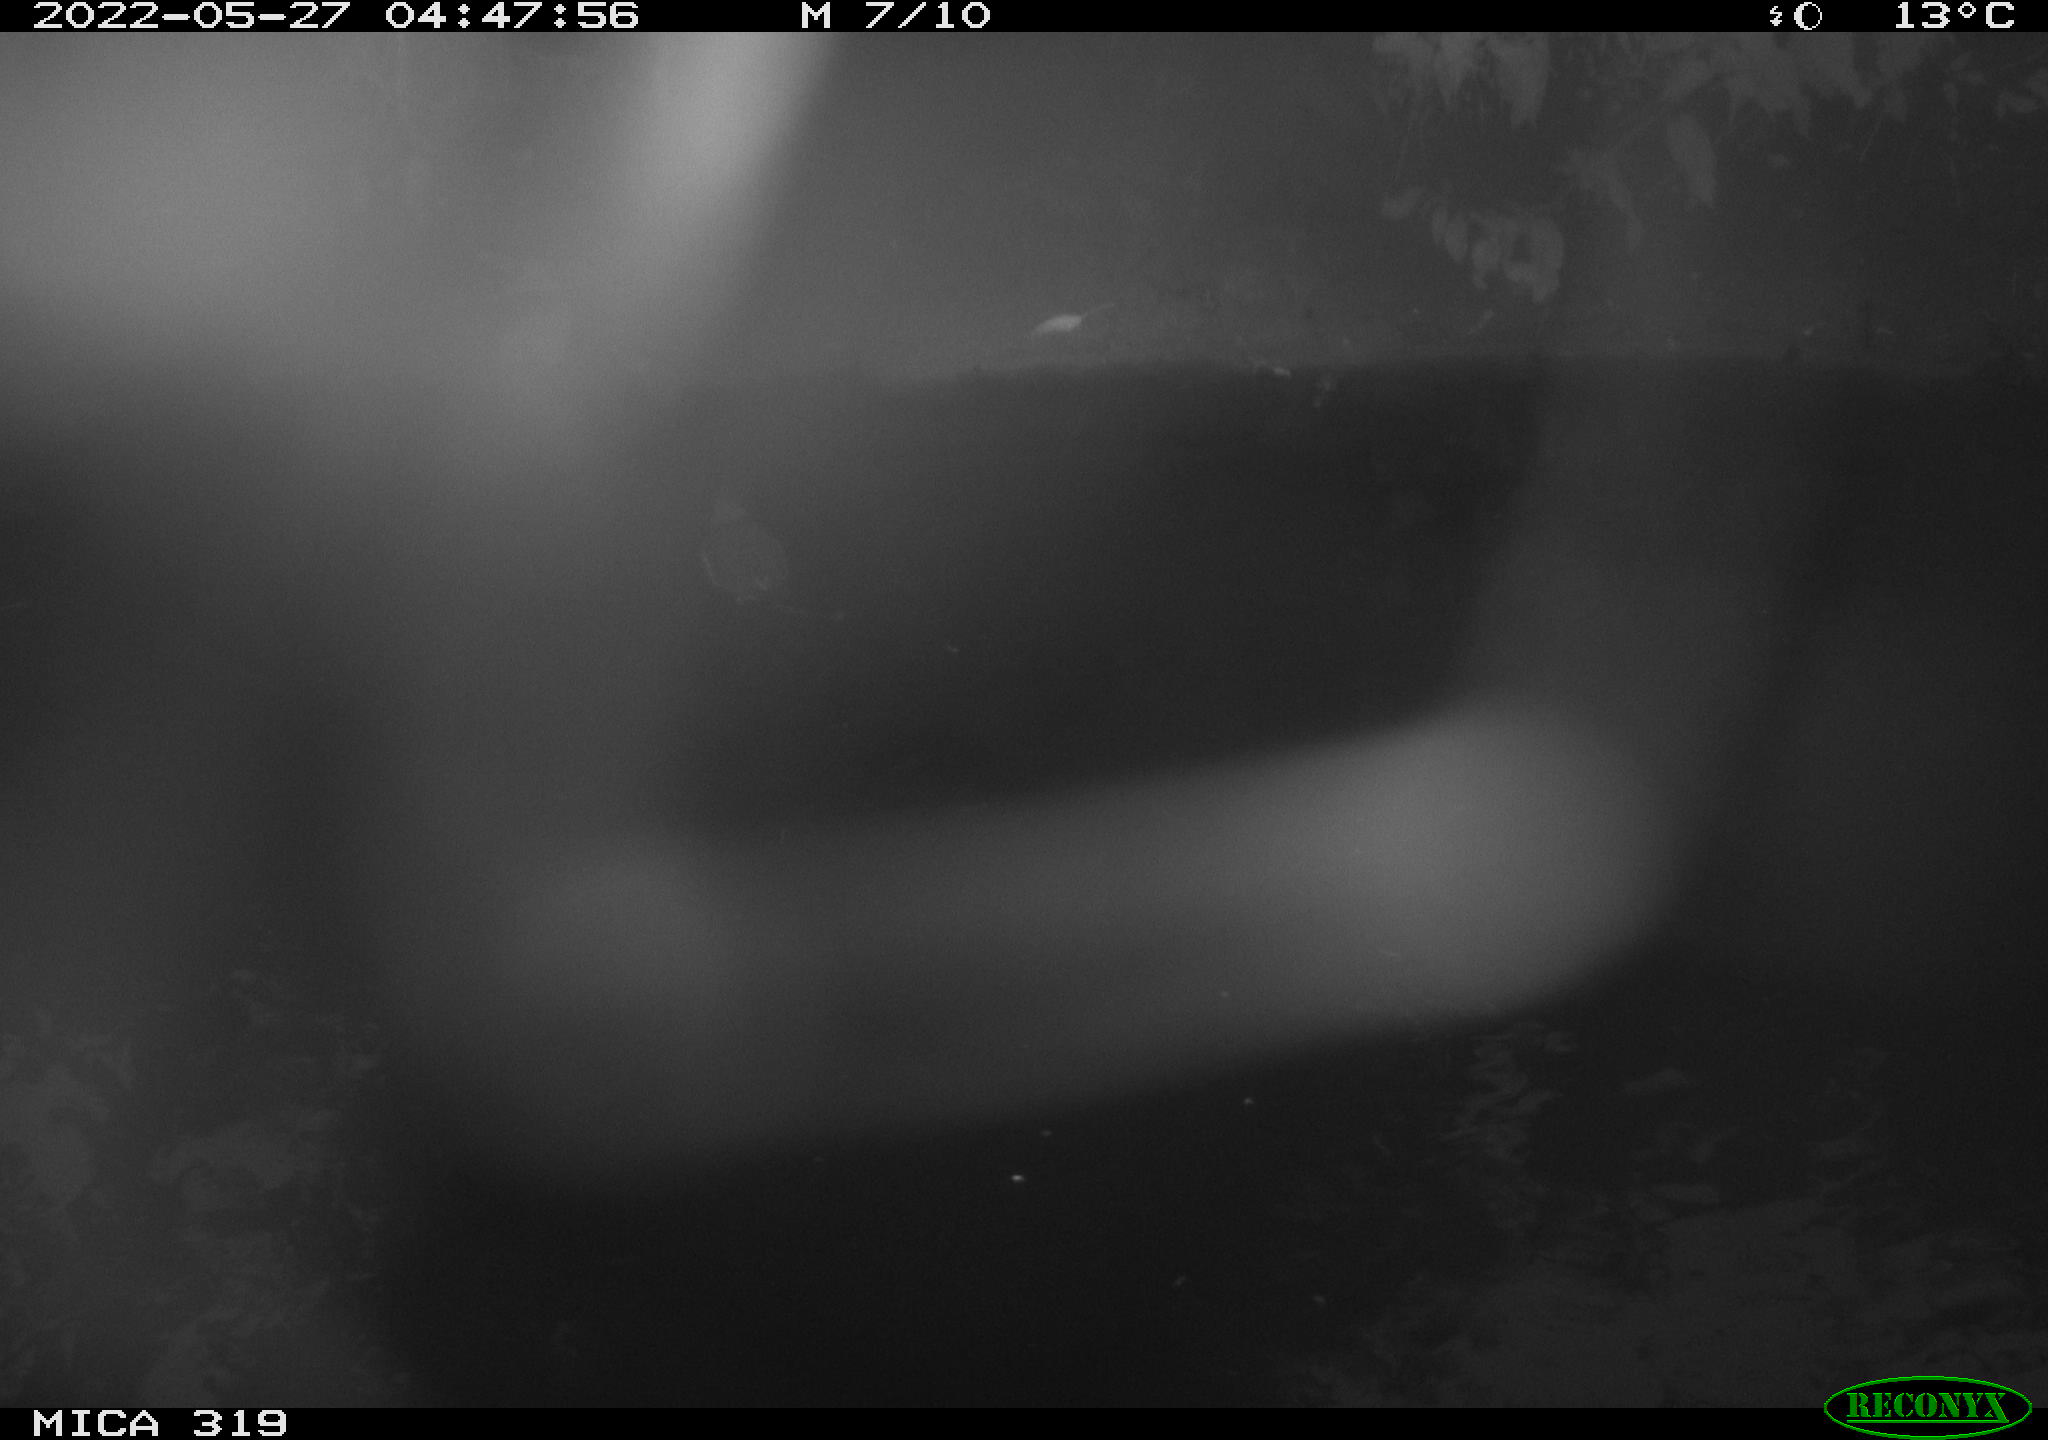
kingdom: Animalia
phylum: Chordata
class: Aves
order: Gruiformes
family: Rallidae
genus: Gallinula
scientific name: Gallinula chloropus
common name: Common moorhen
